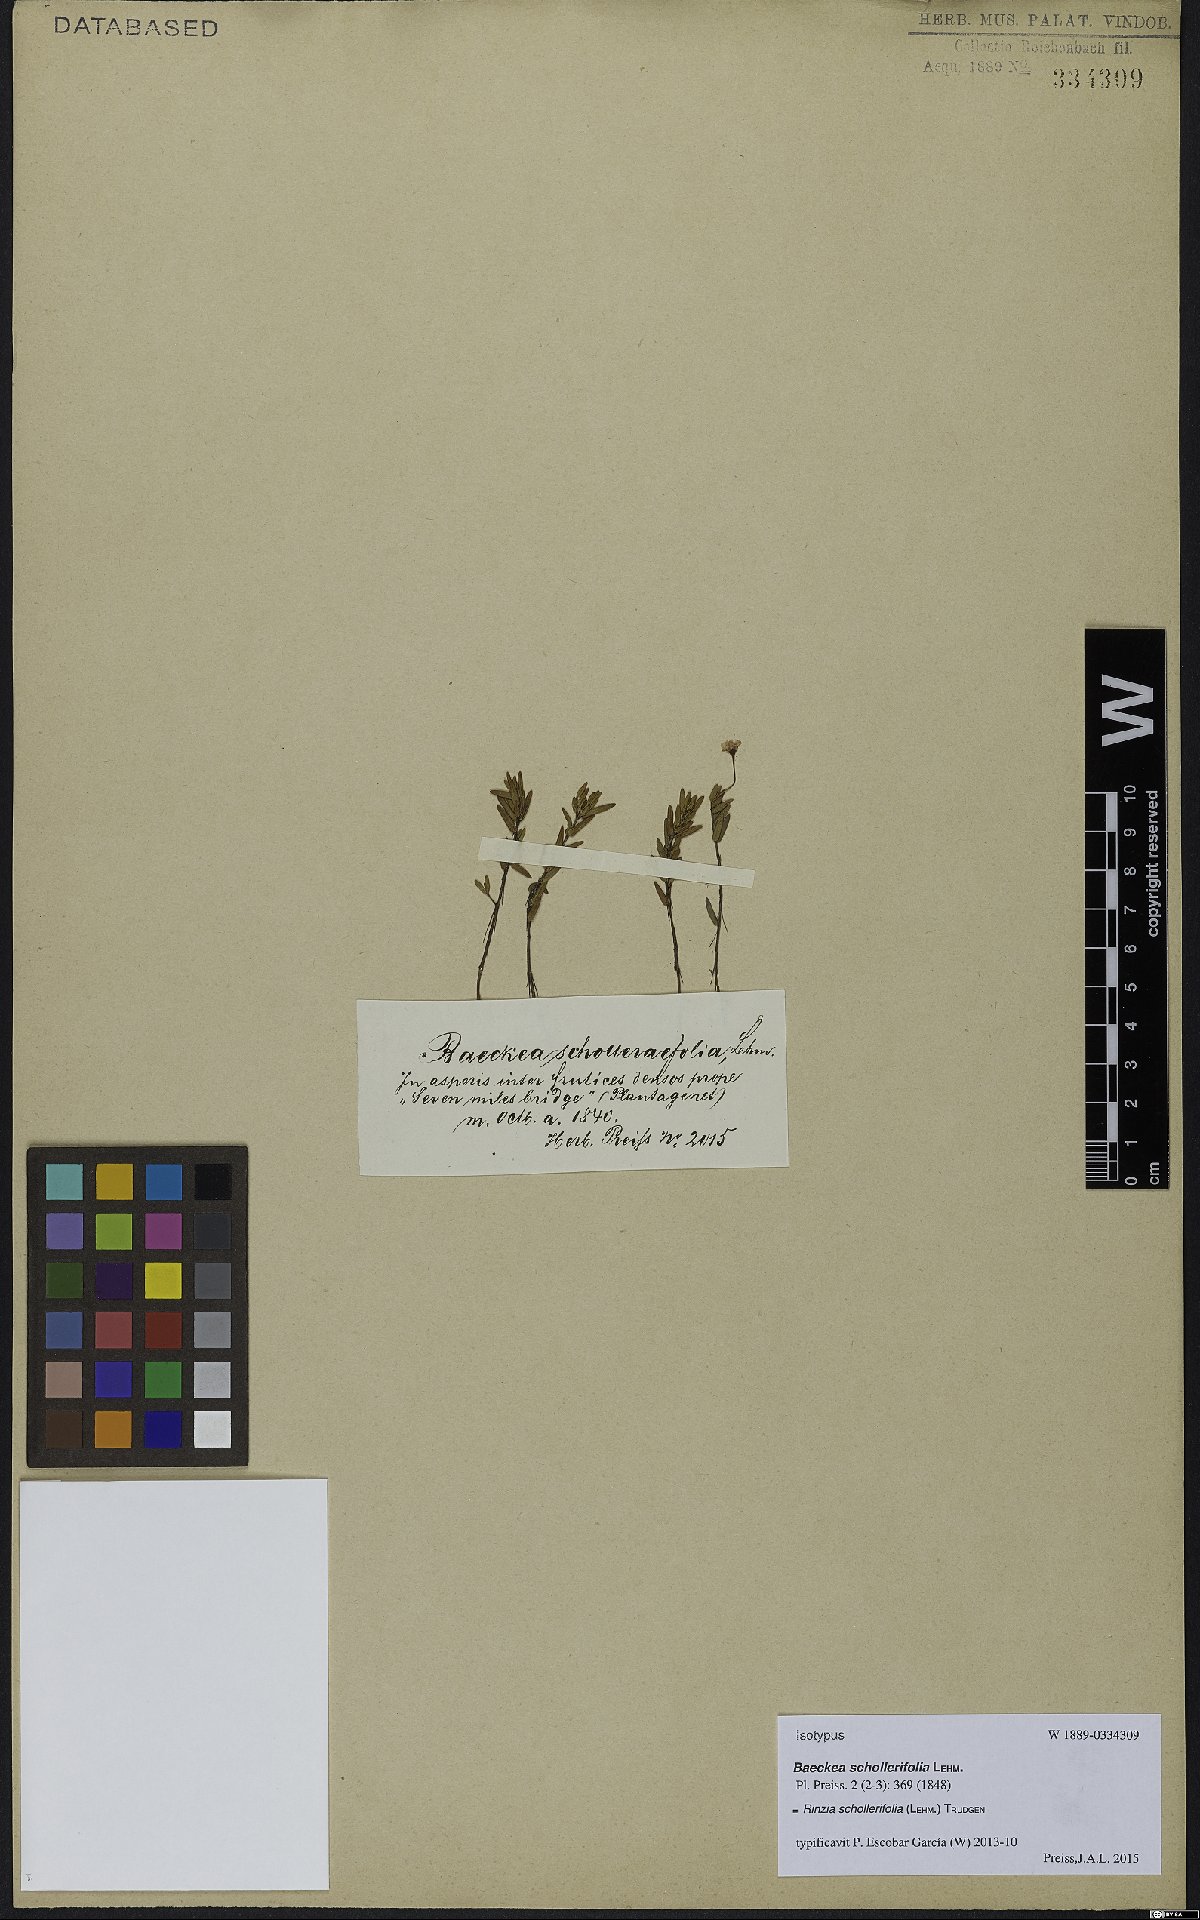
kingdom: Plantae
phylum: Tracheophyta
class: Magnoliopsida
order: Myrtales
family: Myrtaceae
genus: Rinzia
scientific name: Rinzia schollerifolia
